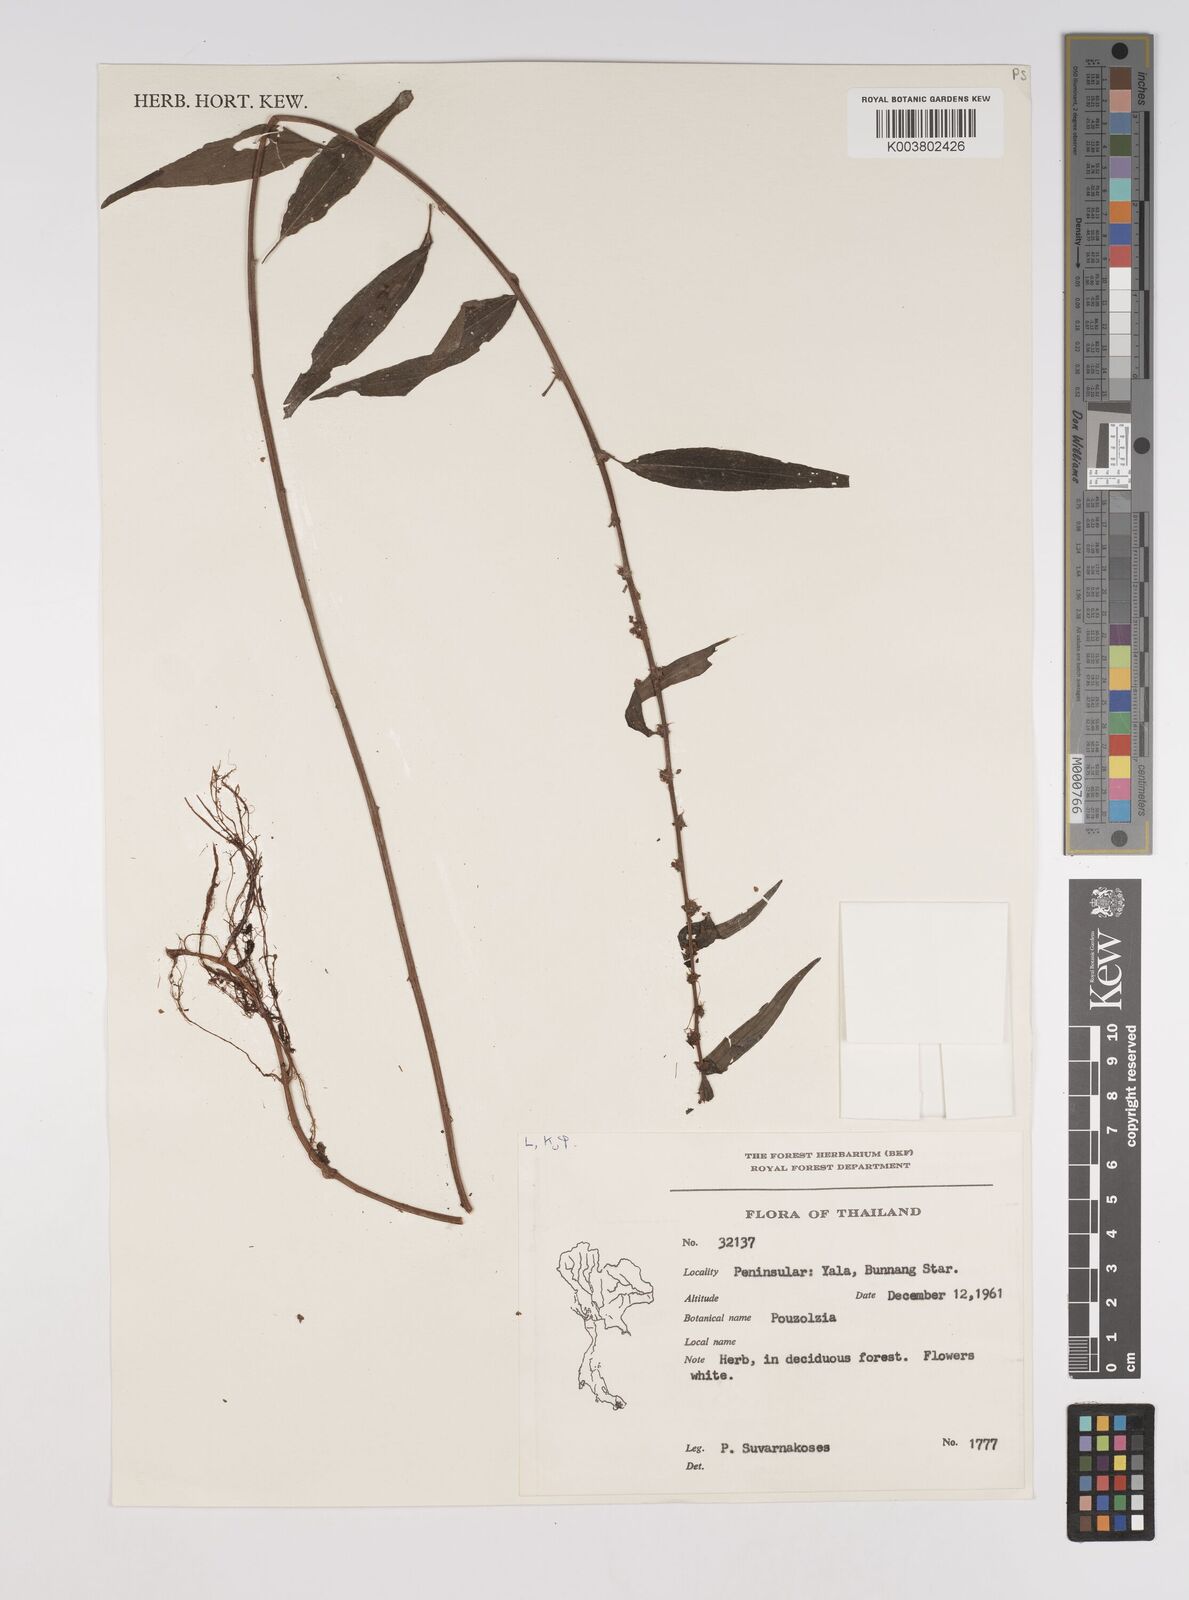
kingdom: Plantae
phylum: Tracheophyta
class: Magnoliopsida
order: Rosales
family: Urticaceae
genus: Pouzolzia
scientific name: Pouzolzia zeylanica
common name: Graceful pouzolzsbush
